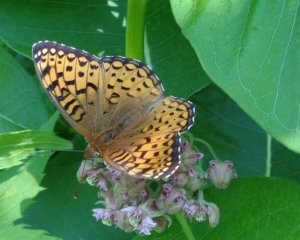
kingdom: Animalia
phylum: Arthropoda
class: Insecta
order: Lepidoptera
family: Nymphalidae
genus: Speyeria
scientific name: Speyeria atlantis
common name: Atlantis Fritillary
